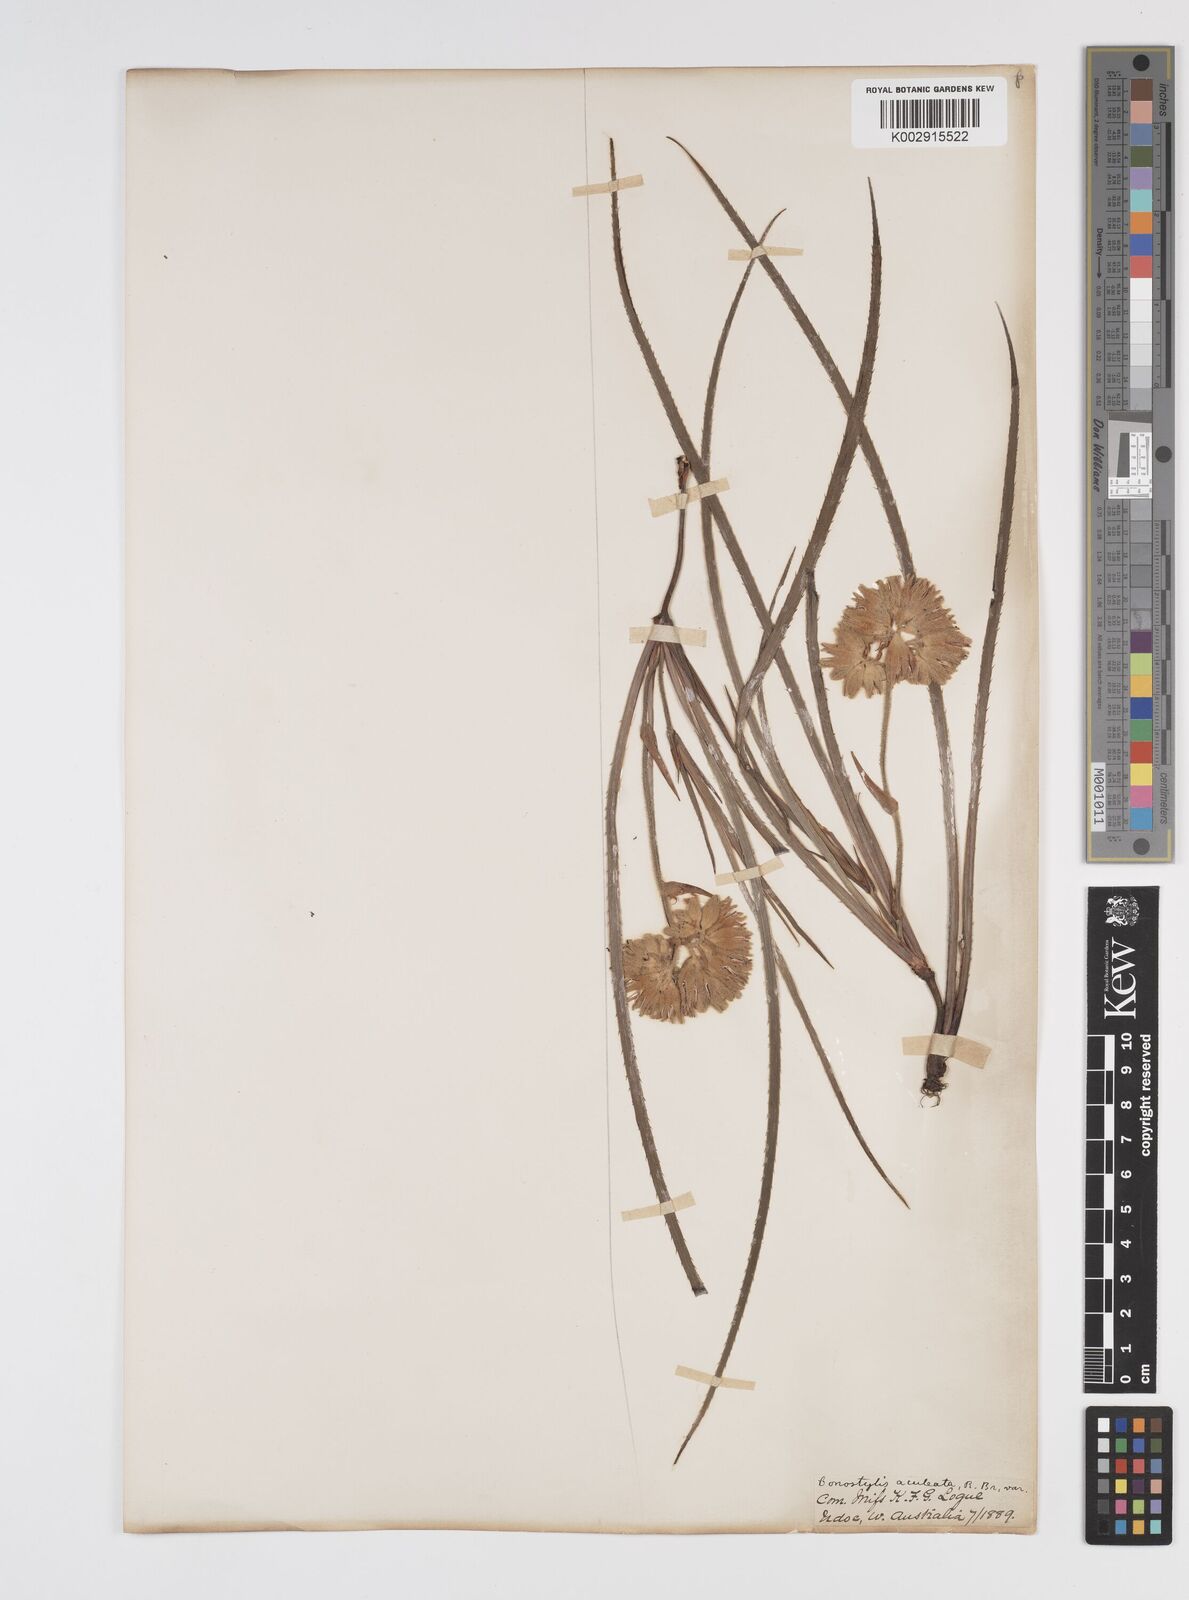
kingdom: Plantae
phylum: Tracheophyta
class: Liliopsida
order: Commelinales
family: Haemodoraceae
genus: Conostylis
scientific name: Conostylis aculeata
